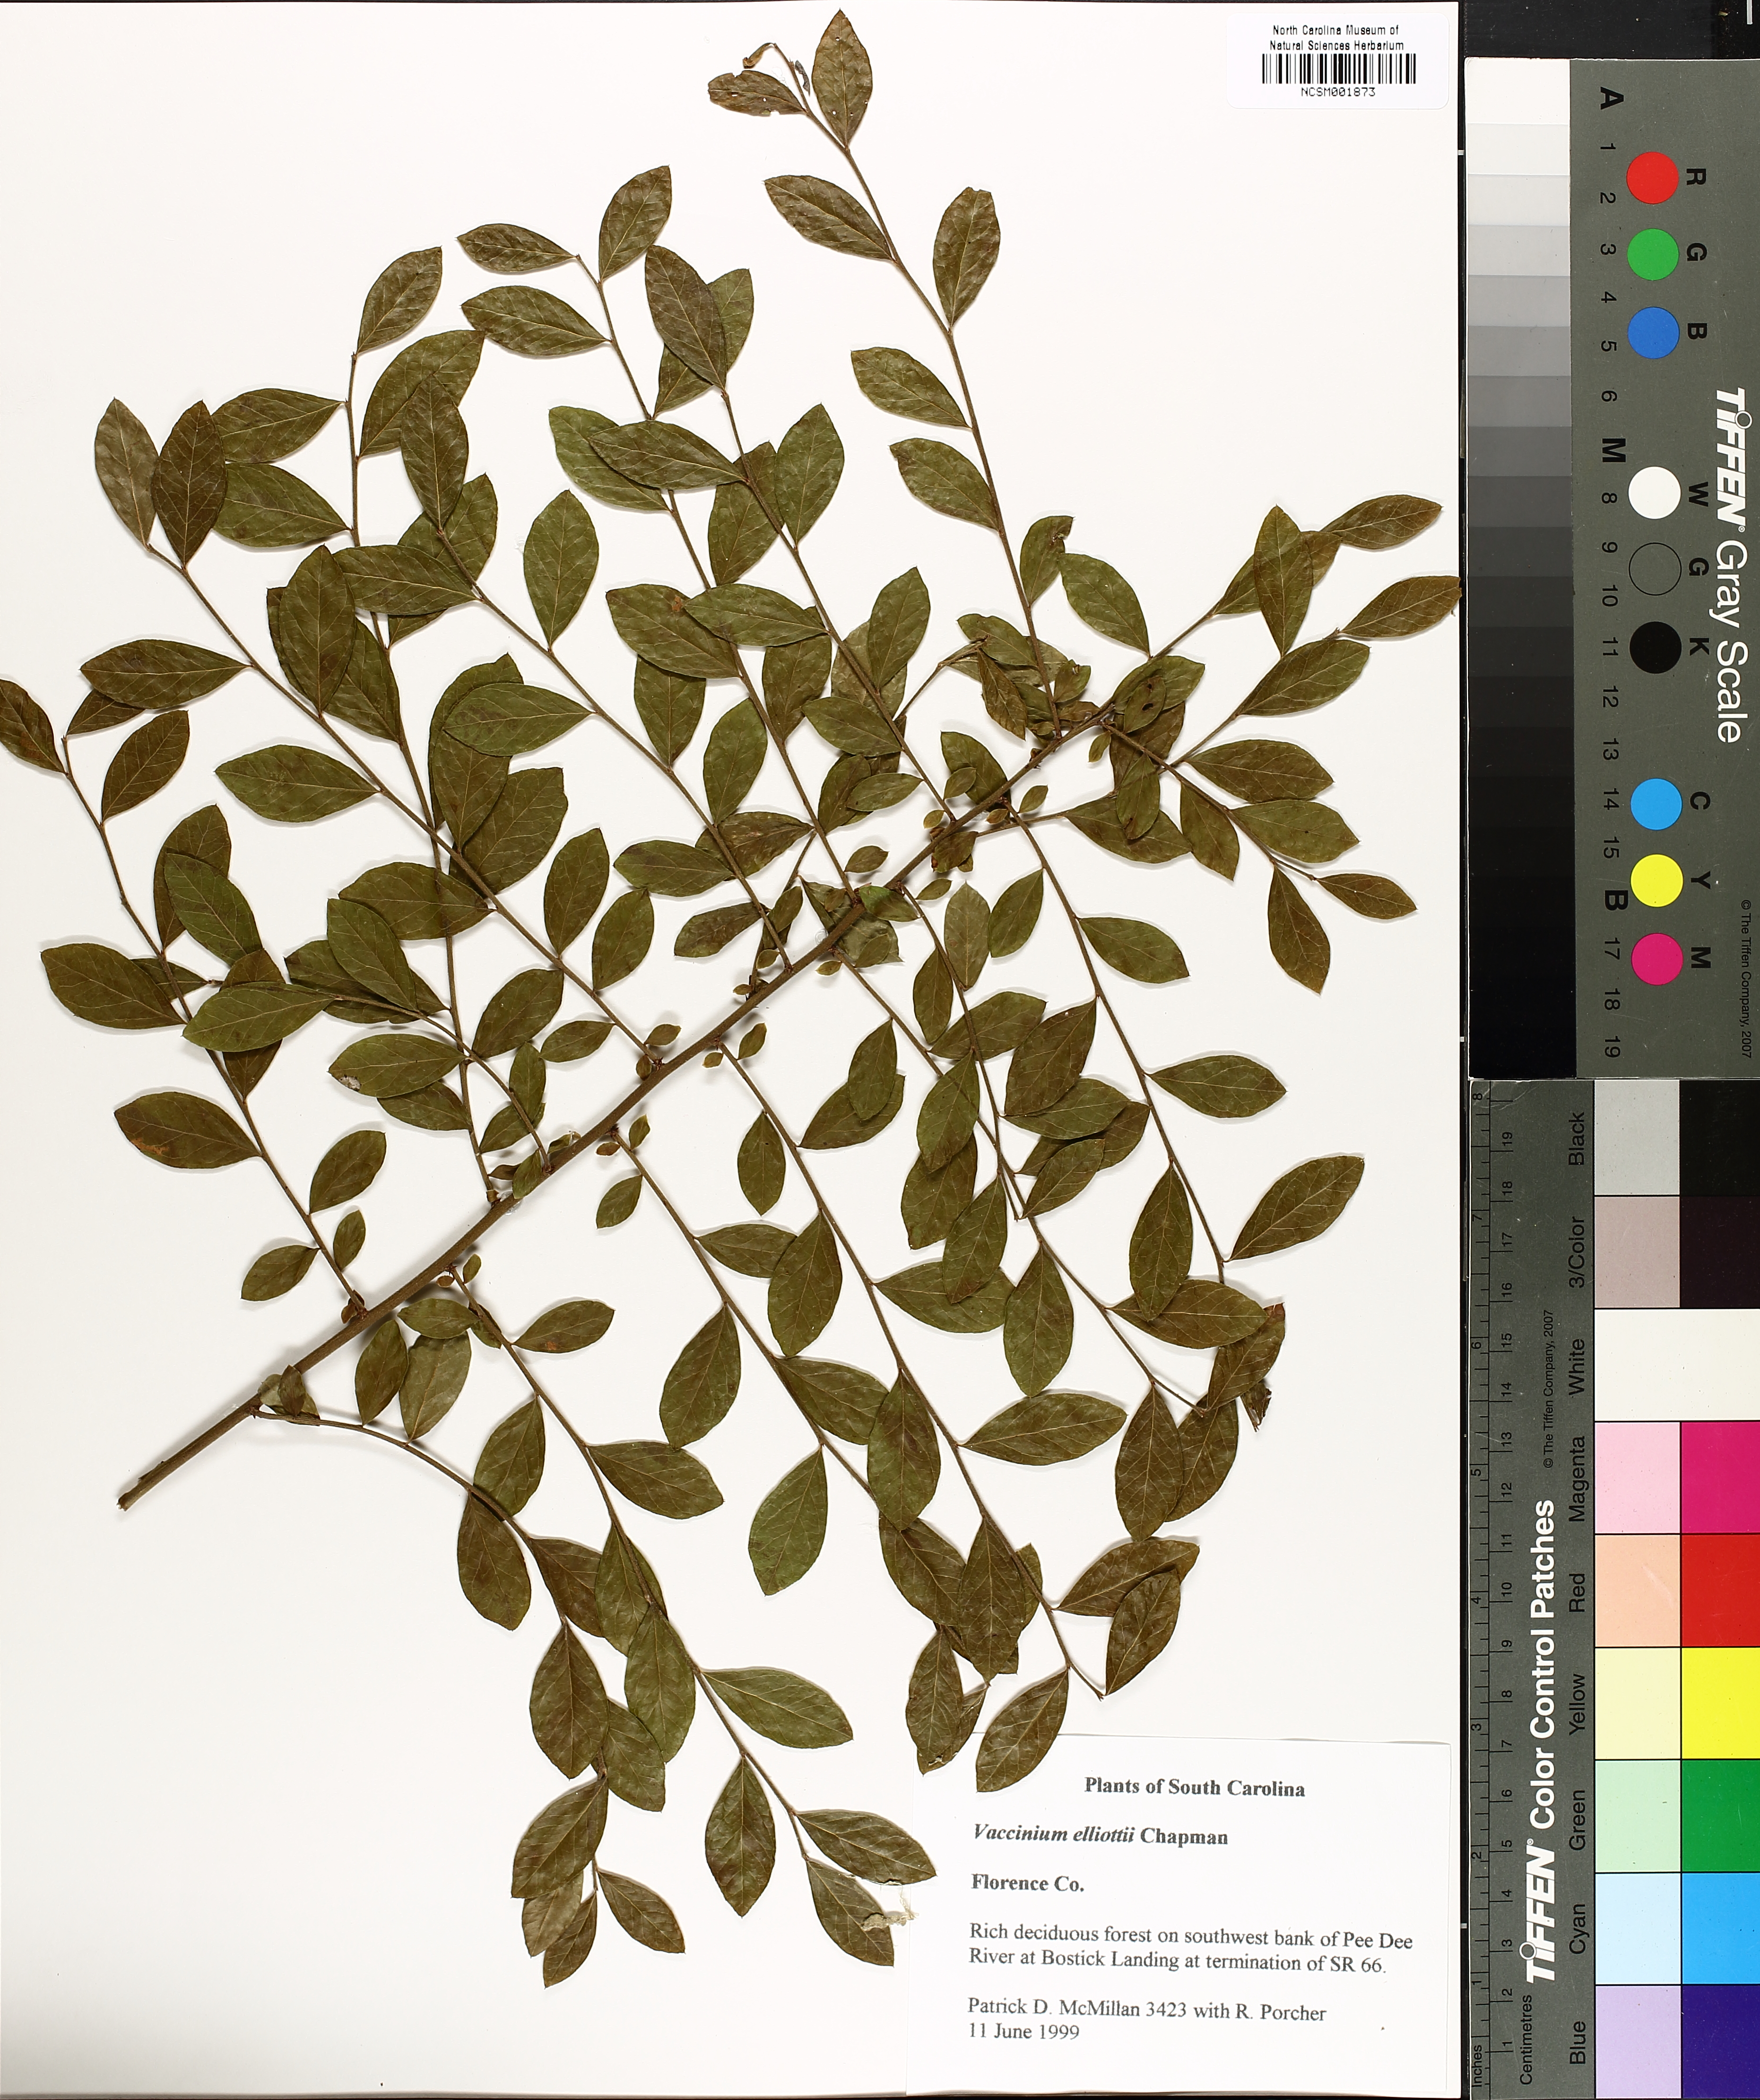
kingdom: Plantae
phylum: Tracheophyta
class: Magnoliopsida
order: Ericales
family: Ericaceae
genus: Vaccinium
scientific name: Vaccinium corymbosum
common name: Blueberry
